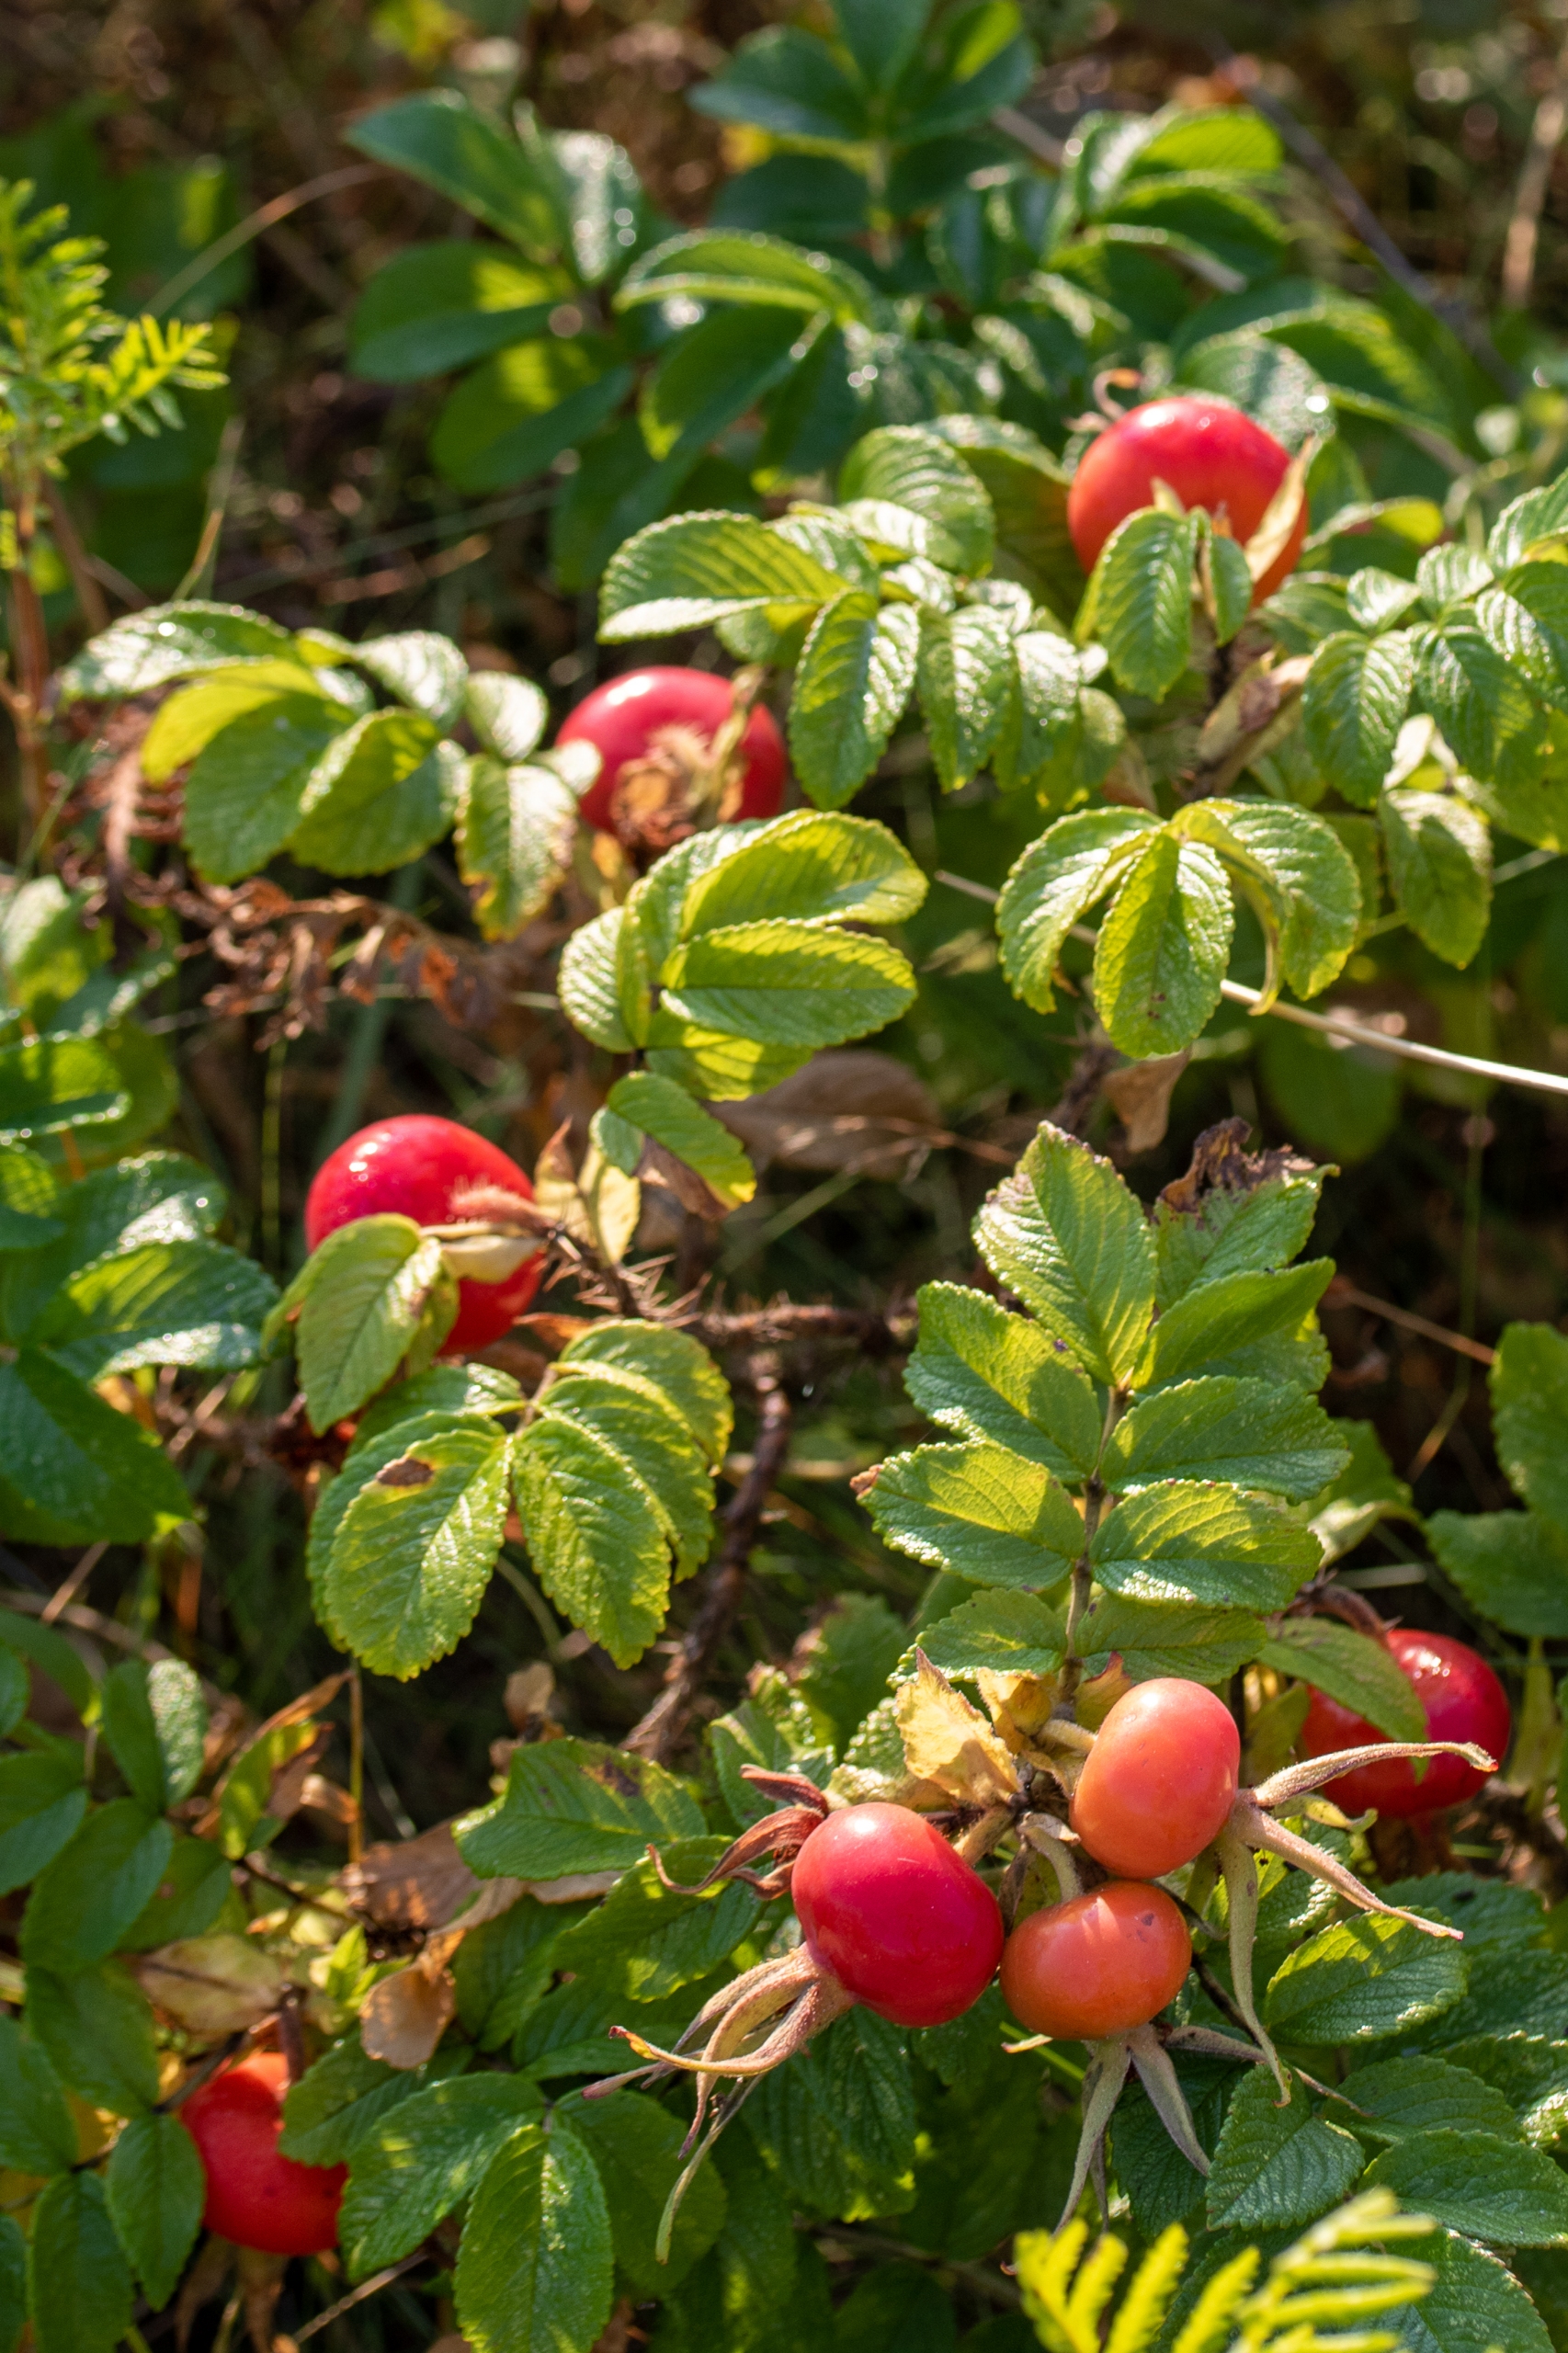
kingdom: Plantae
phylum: Tracheophyta
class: Magnoliopsida
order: Rosales
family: Rosaceae
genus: Rosa
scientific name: Rosa rugosa
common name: Rynket rose
